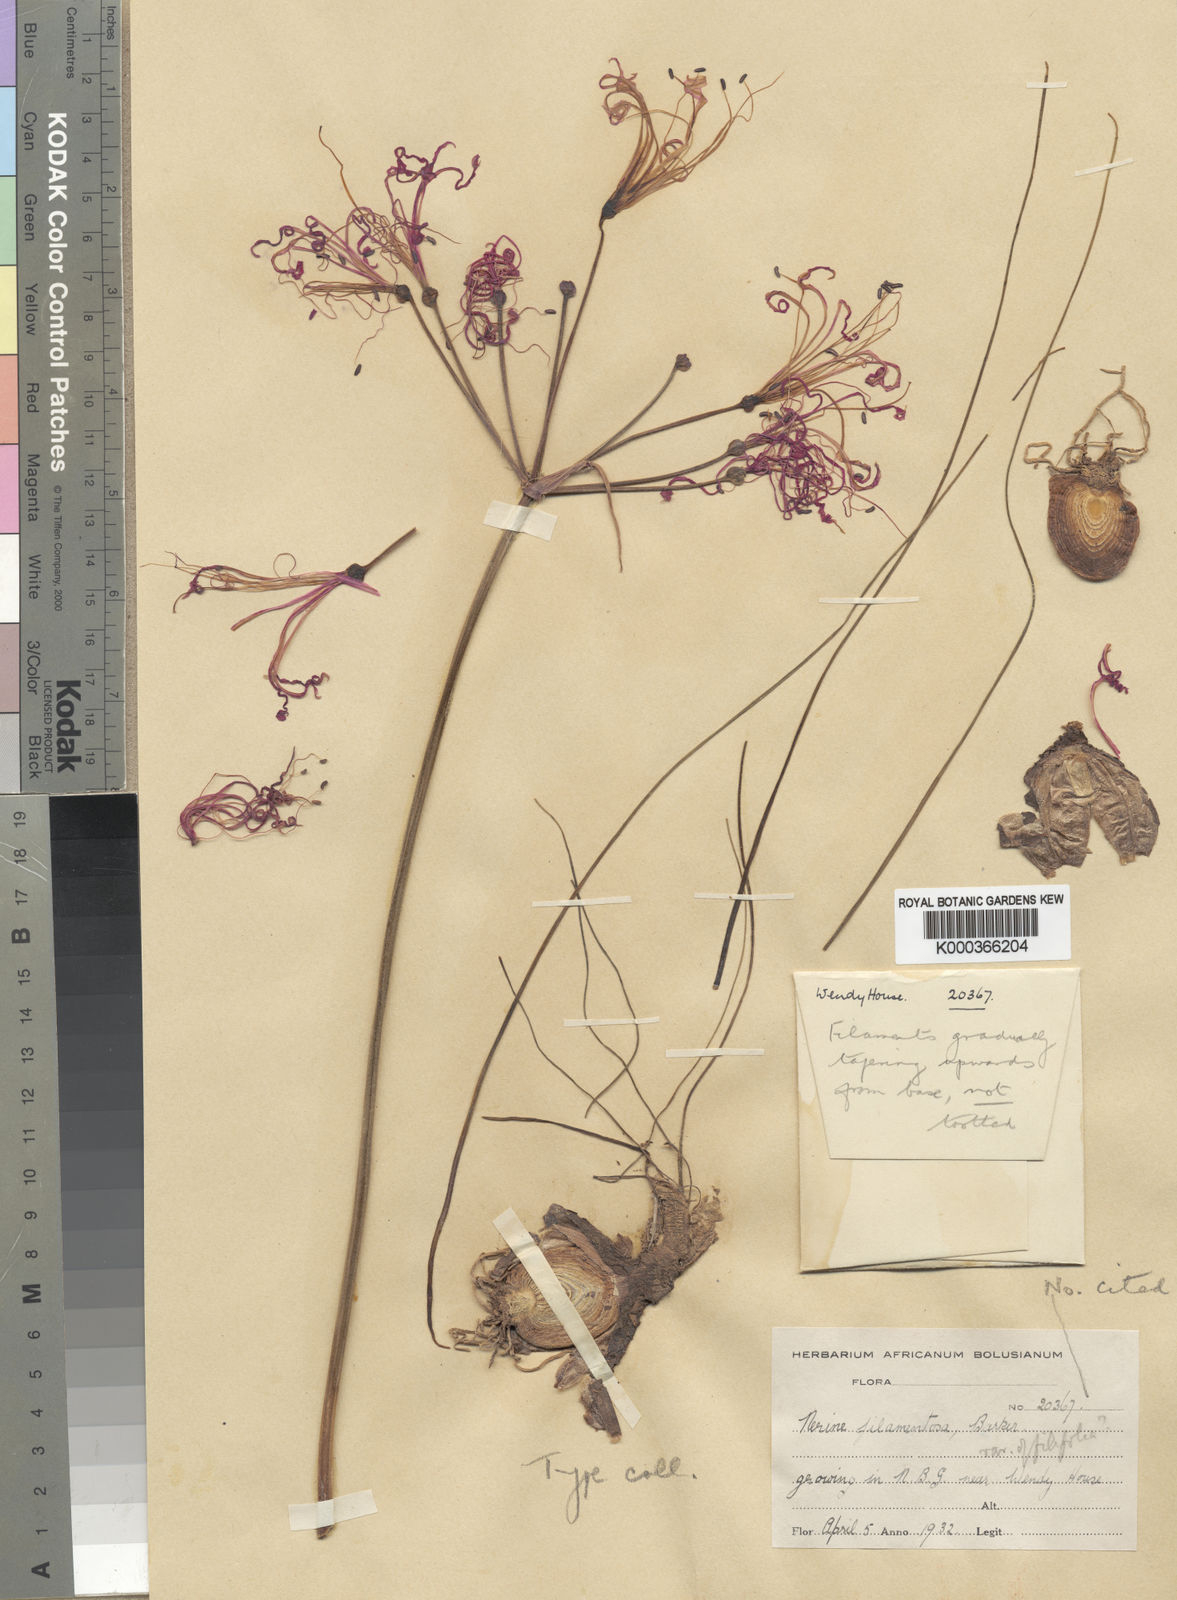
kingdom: Plantae
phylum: Tracheophyta
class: Liliopsida
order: Asparagales
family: Amaryllidaceae
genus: Nerine
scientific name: Nerine filamentosa
